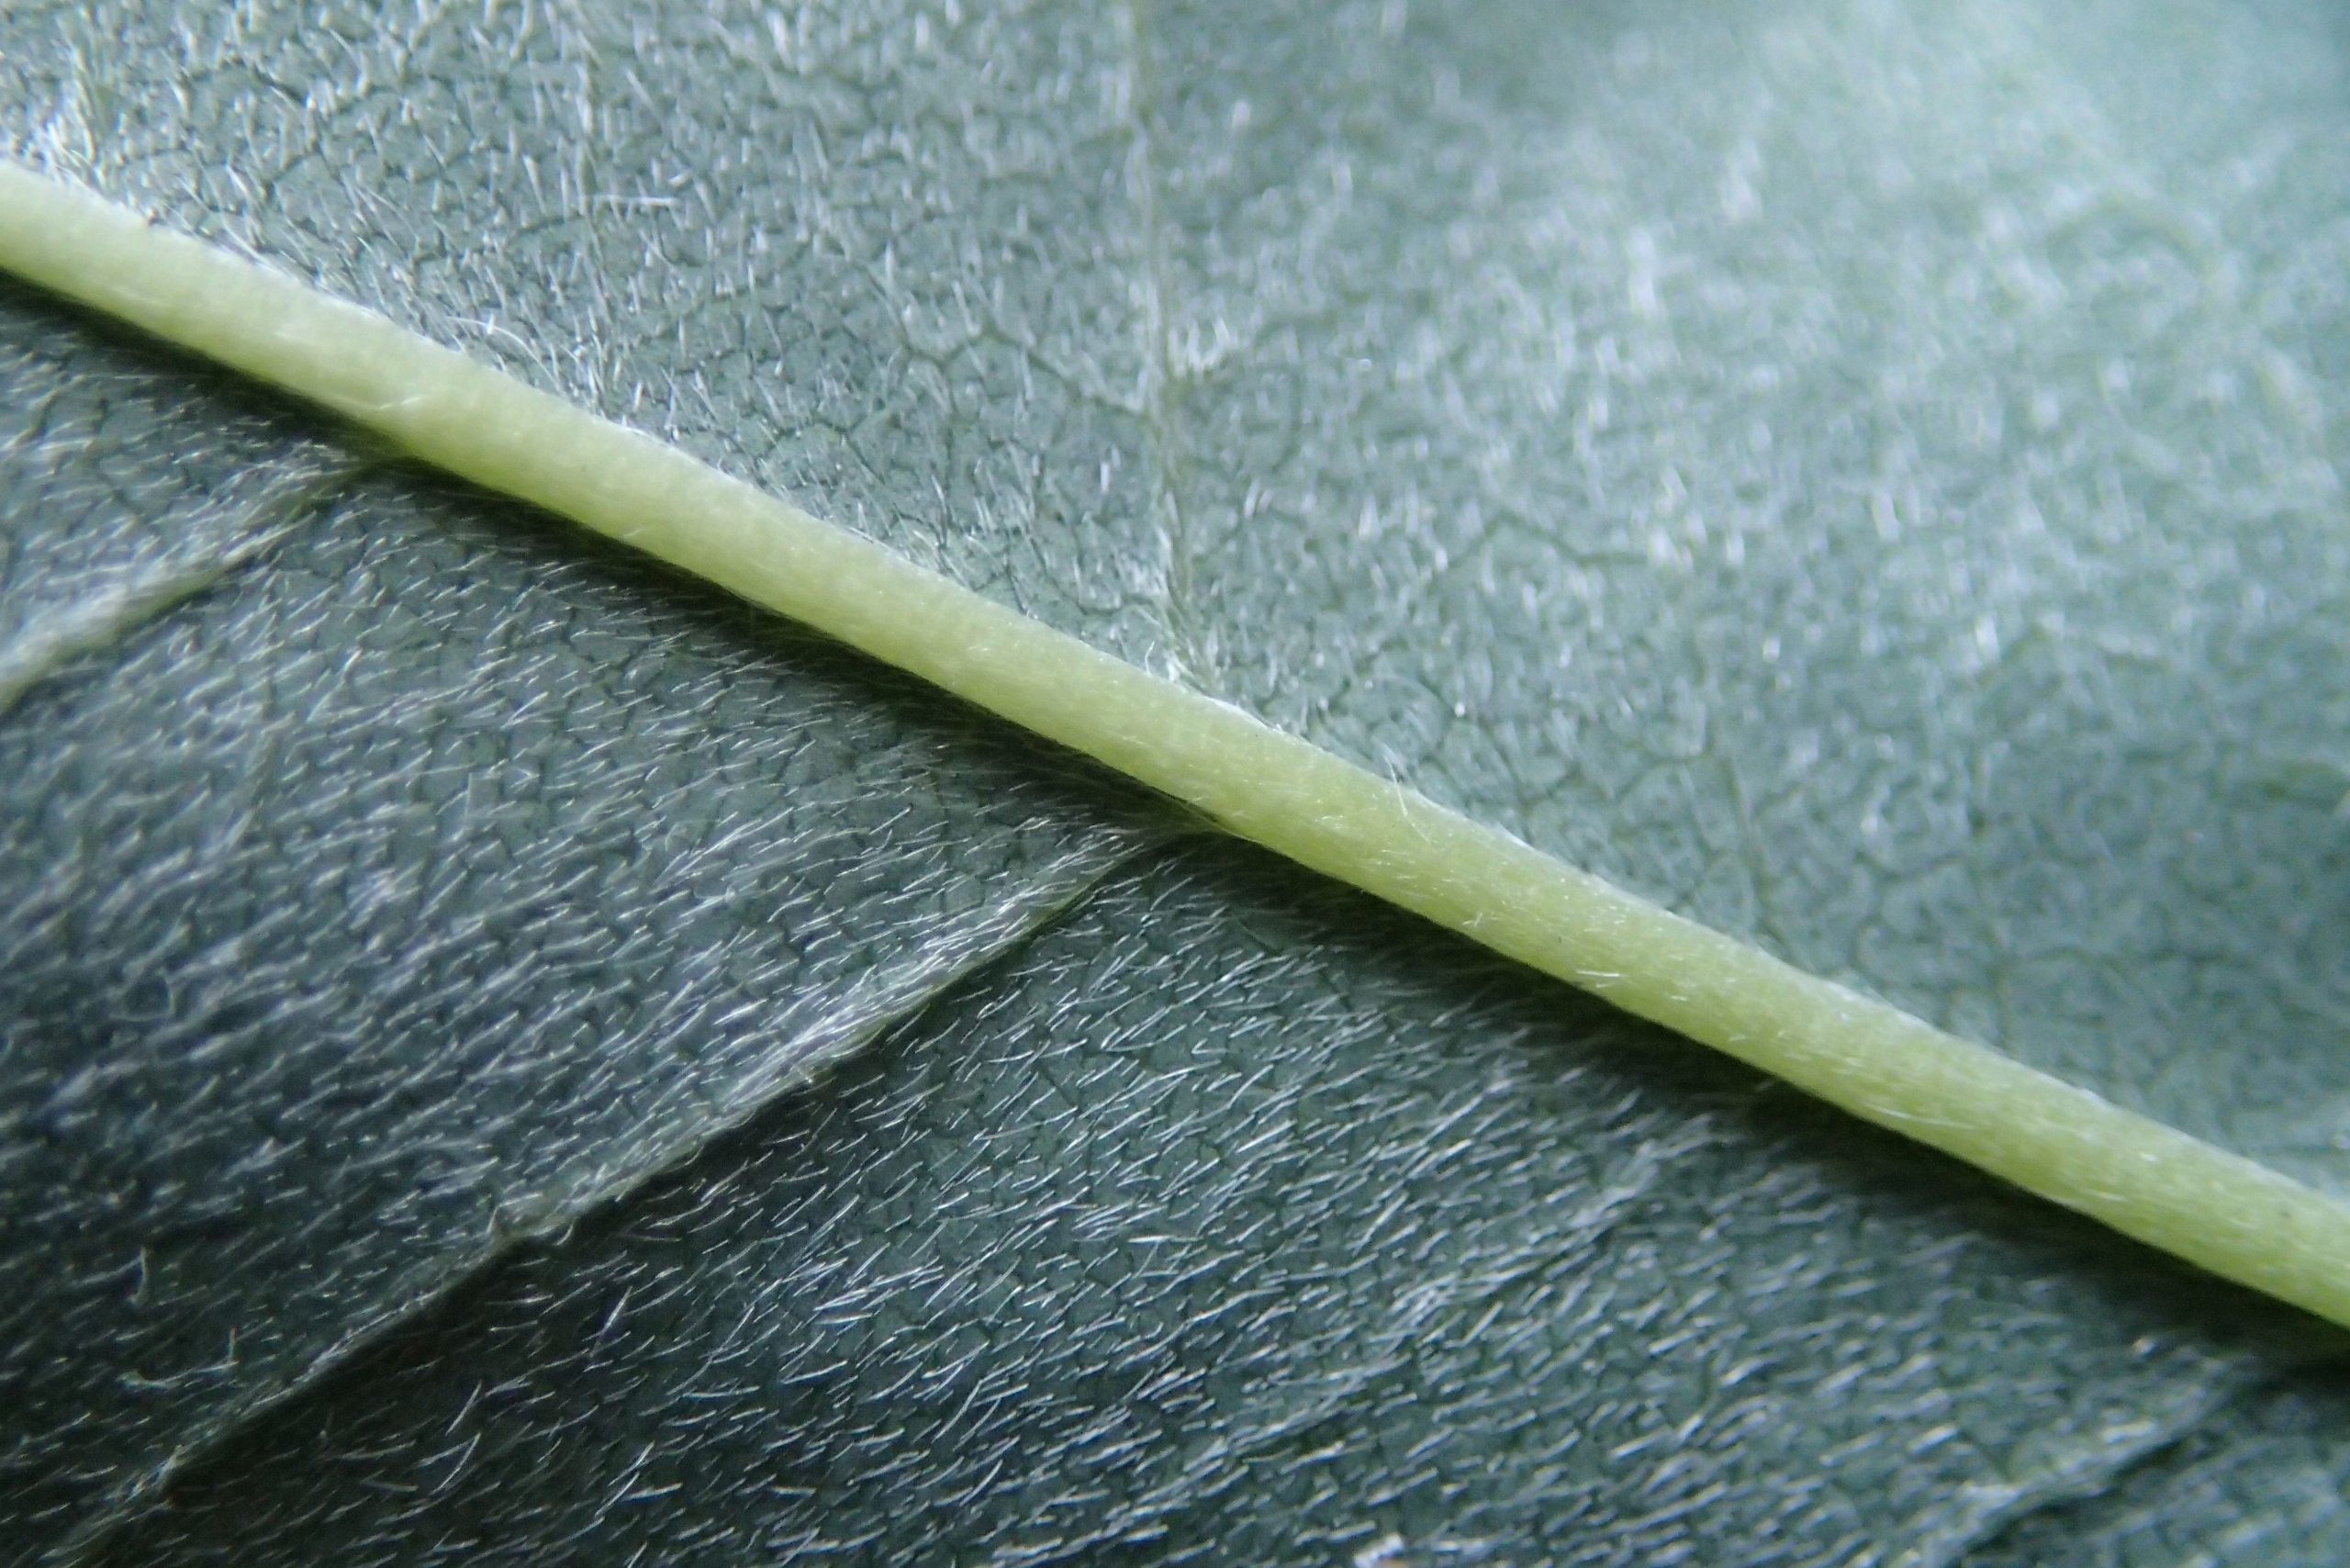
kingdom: Plantae
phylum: Tracheophyta
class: Magnoliopsida
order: Fabales
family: Fabaceae
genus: Laburnum
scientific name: Laburnum anagyroides
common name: Guldregn
